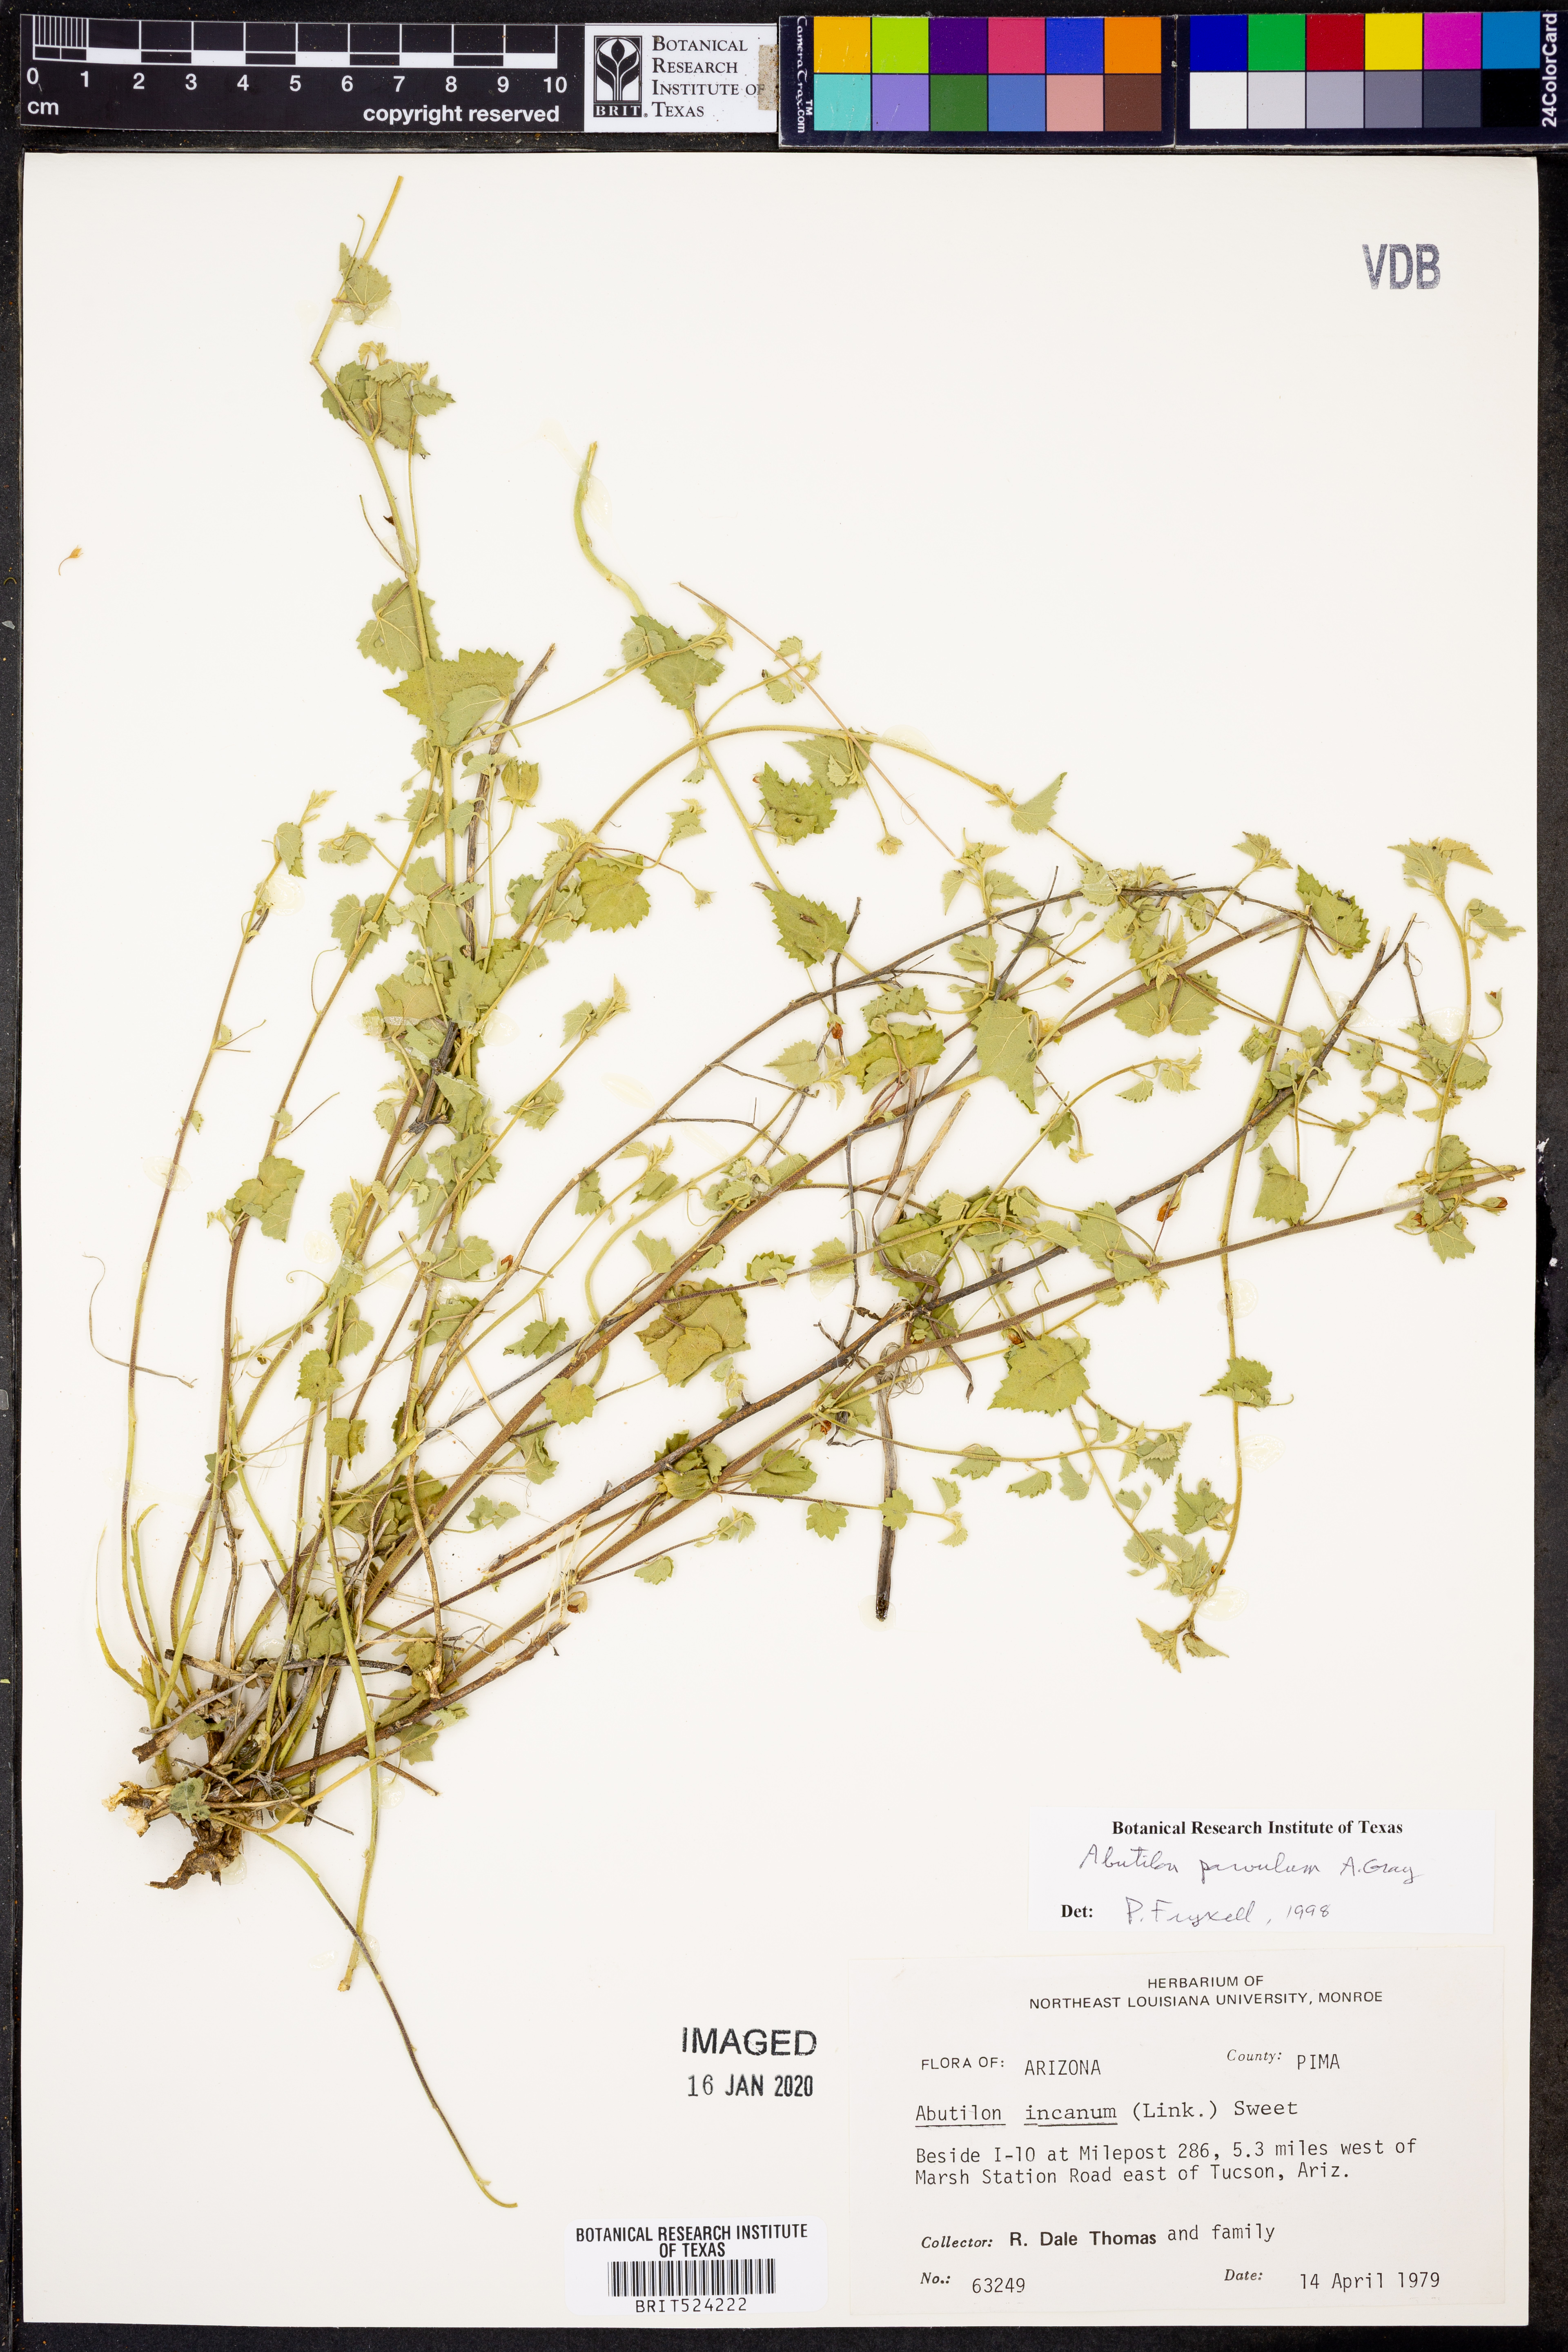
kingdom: Plantae
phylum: Tracheophyta
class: Magnoliopsida
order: Malvales
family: Malvaceae
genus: Abutilon
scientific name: Abutilon parvulum
